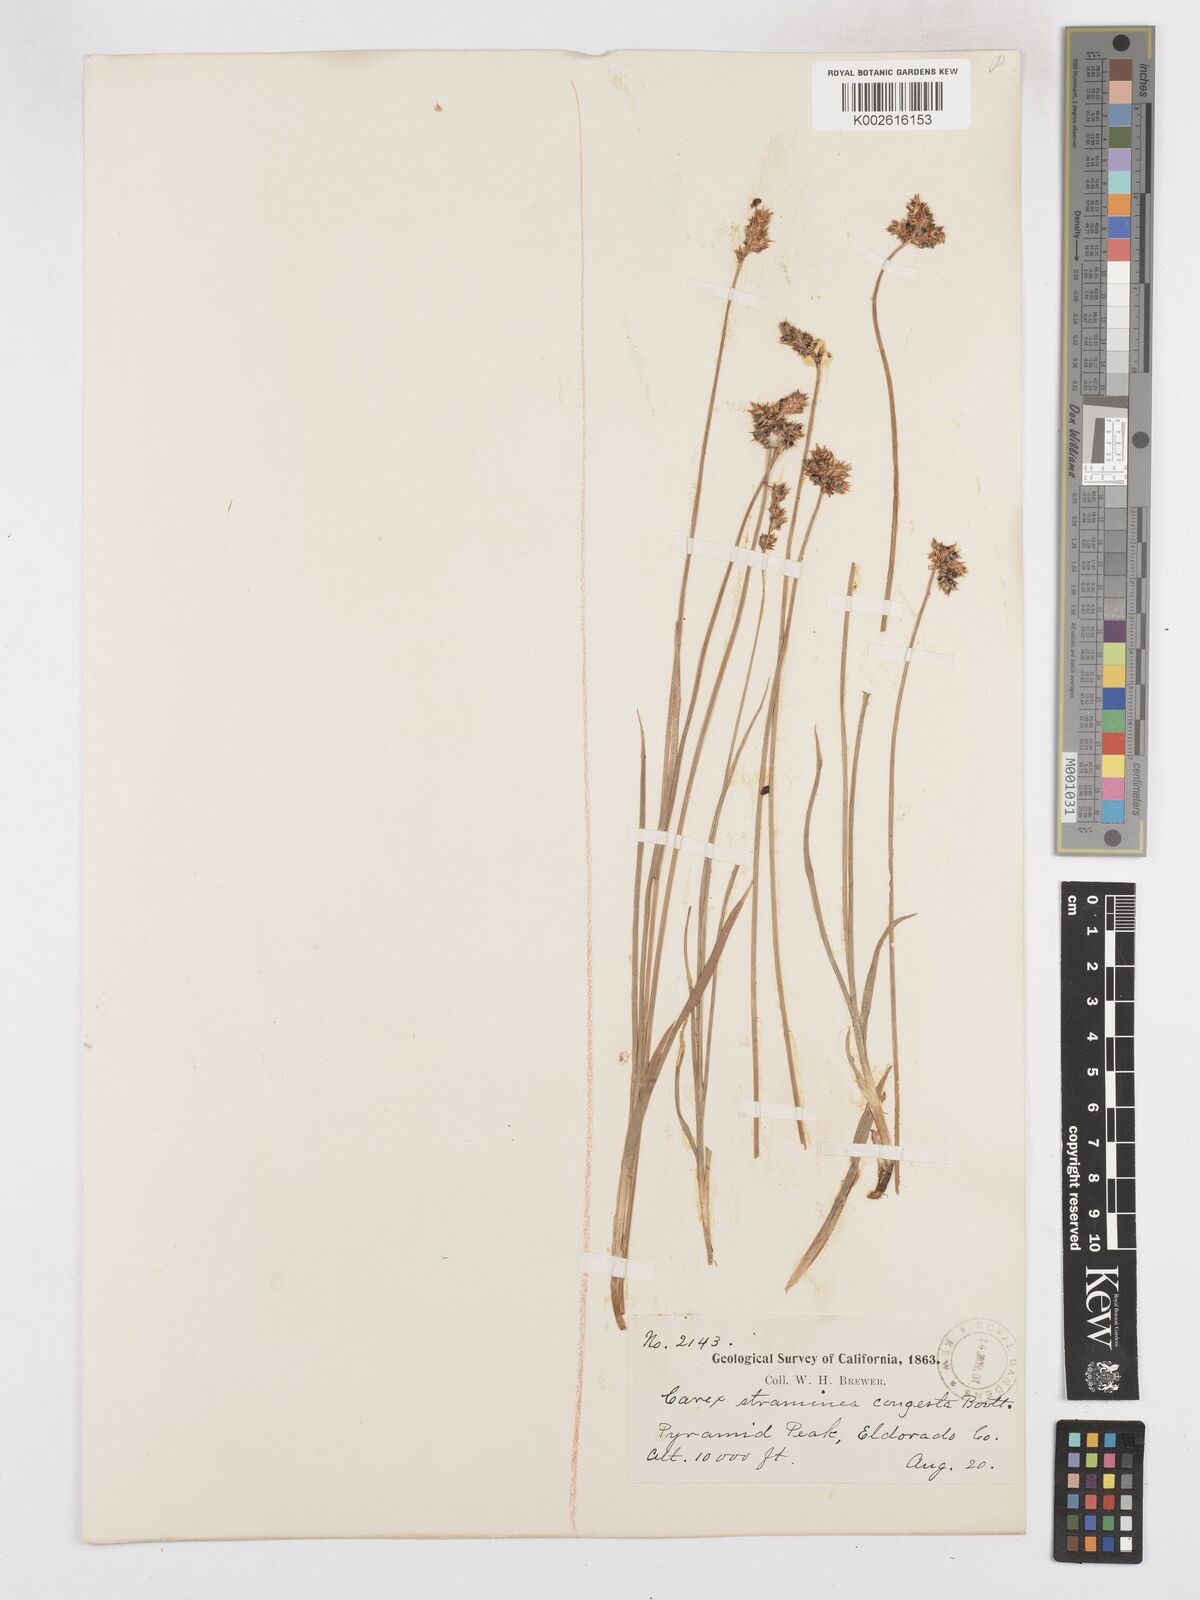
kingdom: Plantae
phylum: Tracheophyta
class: Liliopsida
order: Poales
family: Cyperaceae
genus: Carex
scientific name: Carex brevior
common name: Brevior sedge
